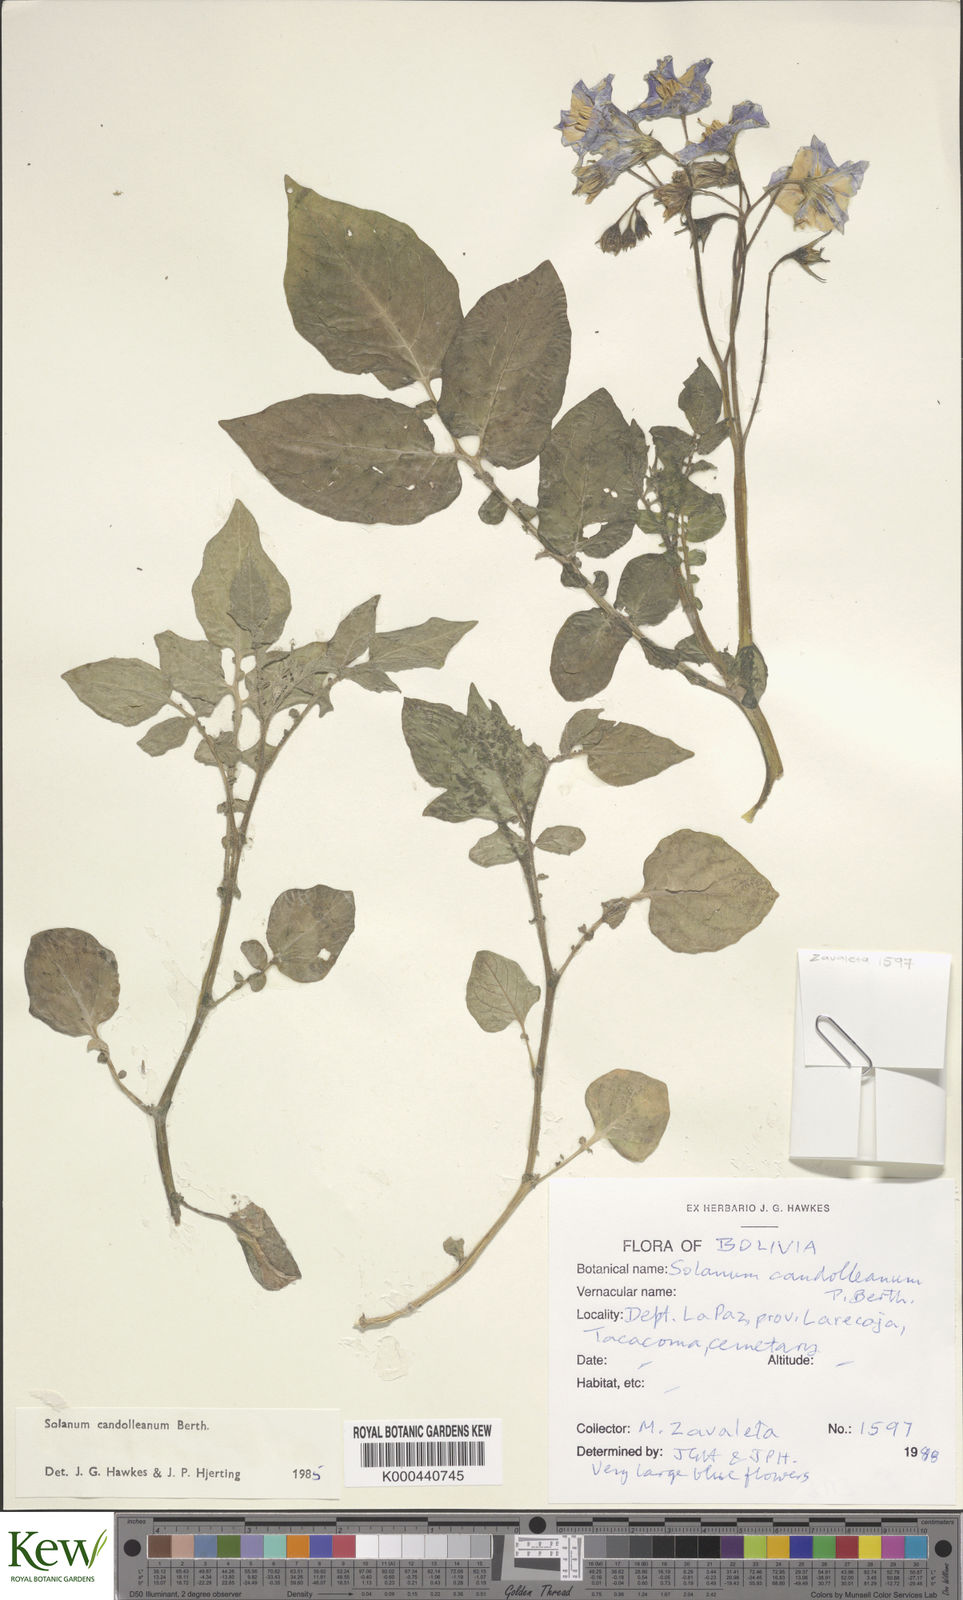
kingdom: Plantae
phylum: Tracheophyta
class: Magnoliopsida
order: Solanales
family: Solanaceae
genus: Solanum
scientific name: Solanum brevicaule
